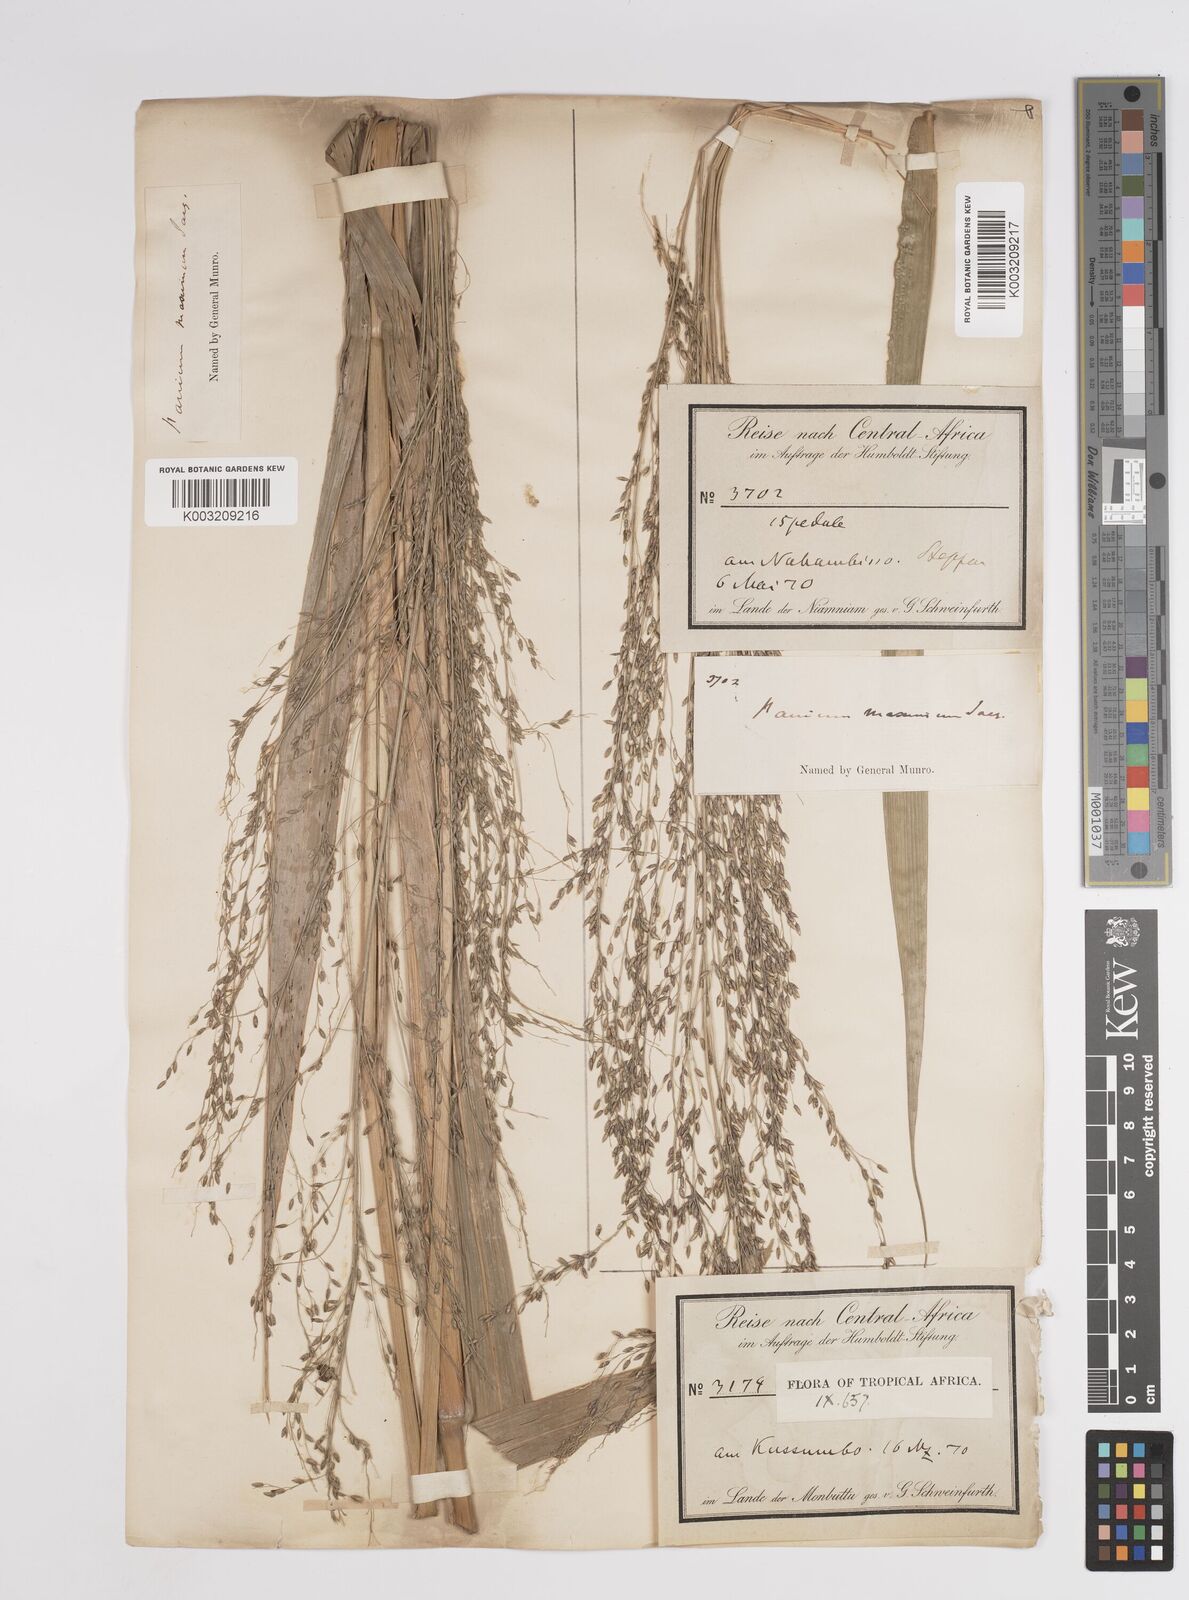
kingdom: Plantae
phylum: Tracheophyta
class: Liliopsida
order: Poales
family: Poaceae
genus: Megathyrsus
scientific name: Megathyrsus maximus
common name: Guineagrass
